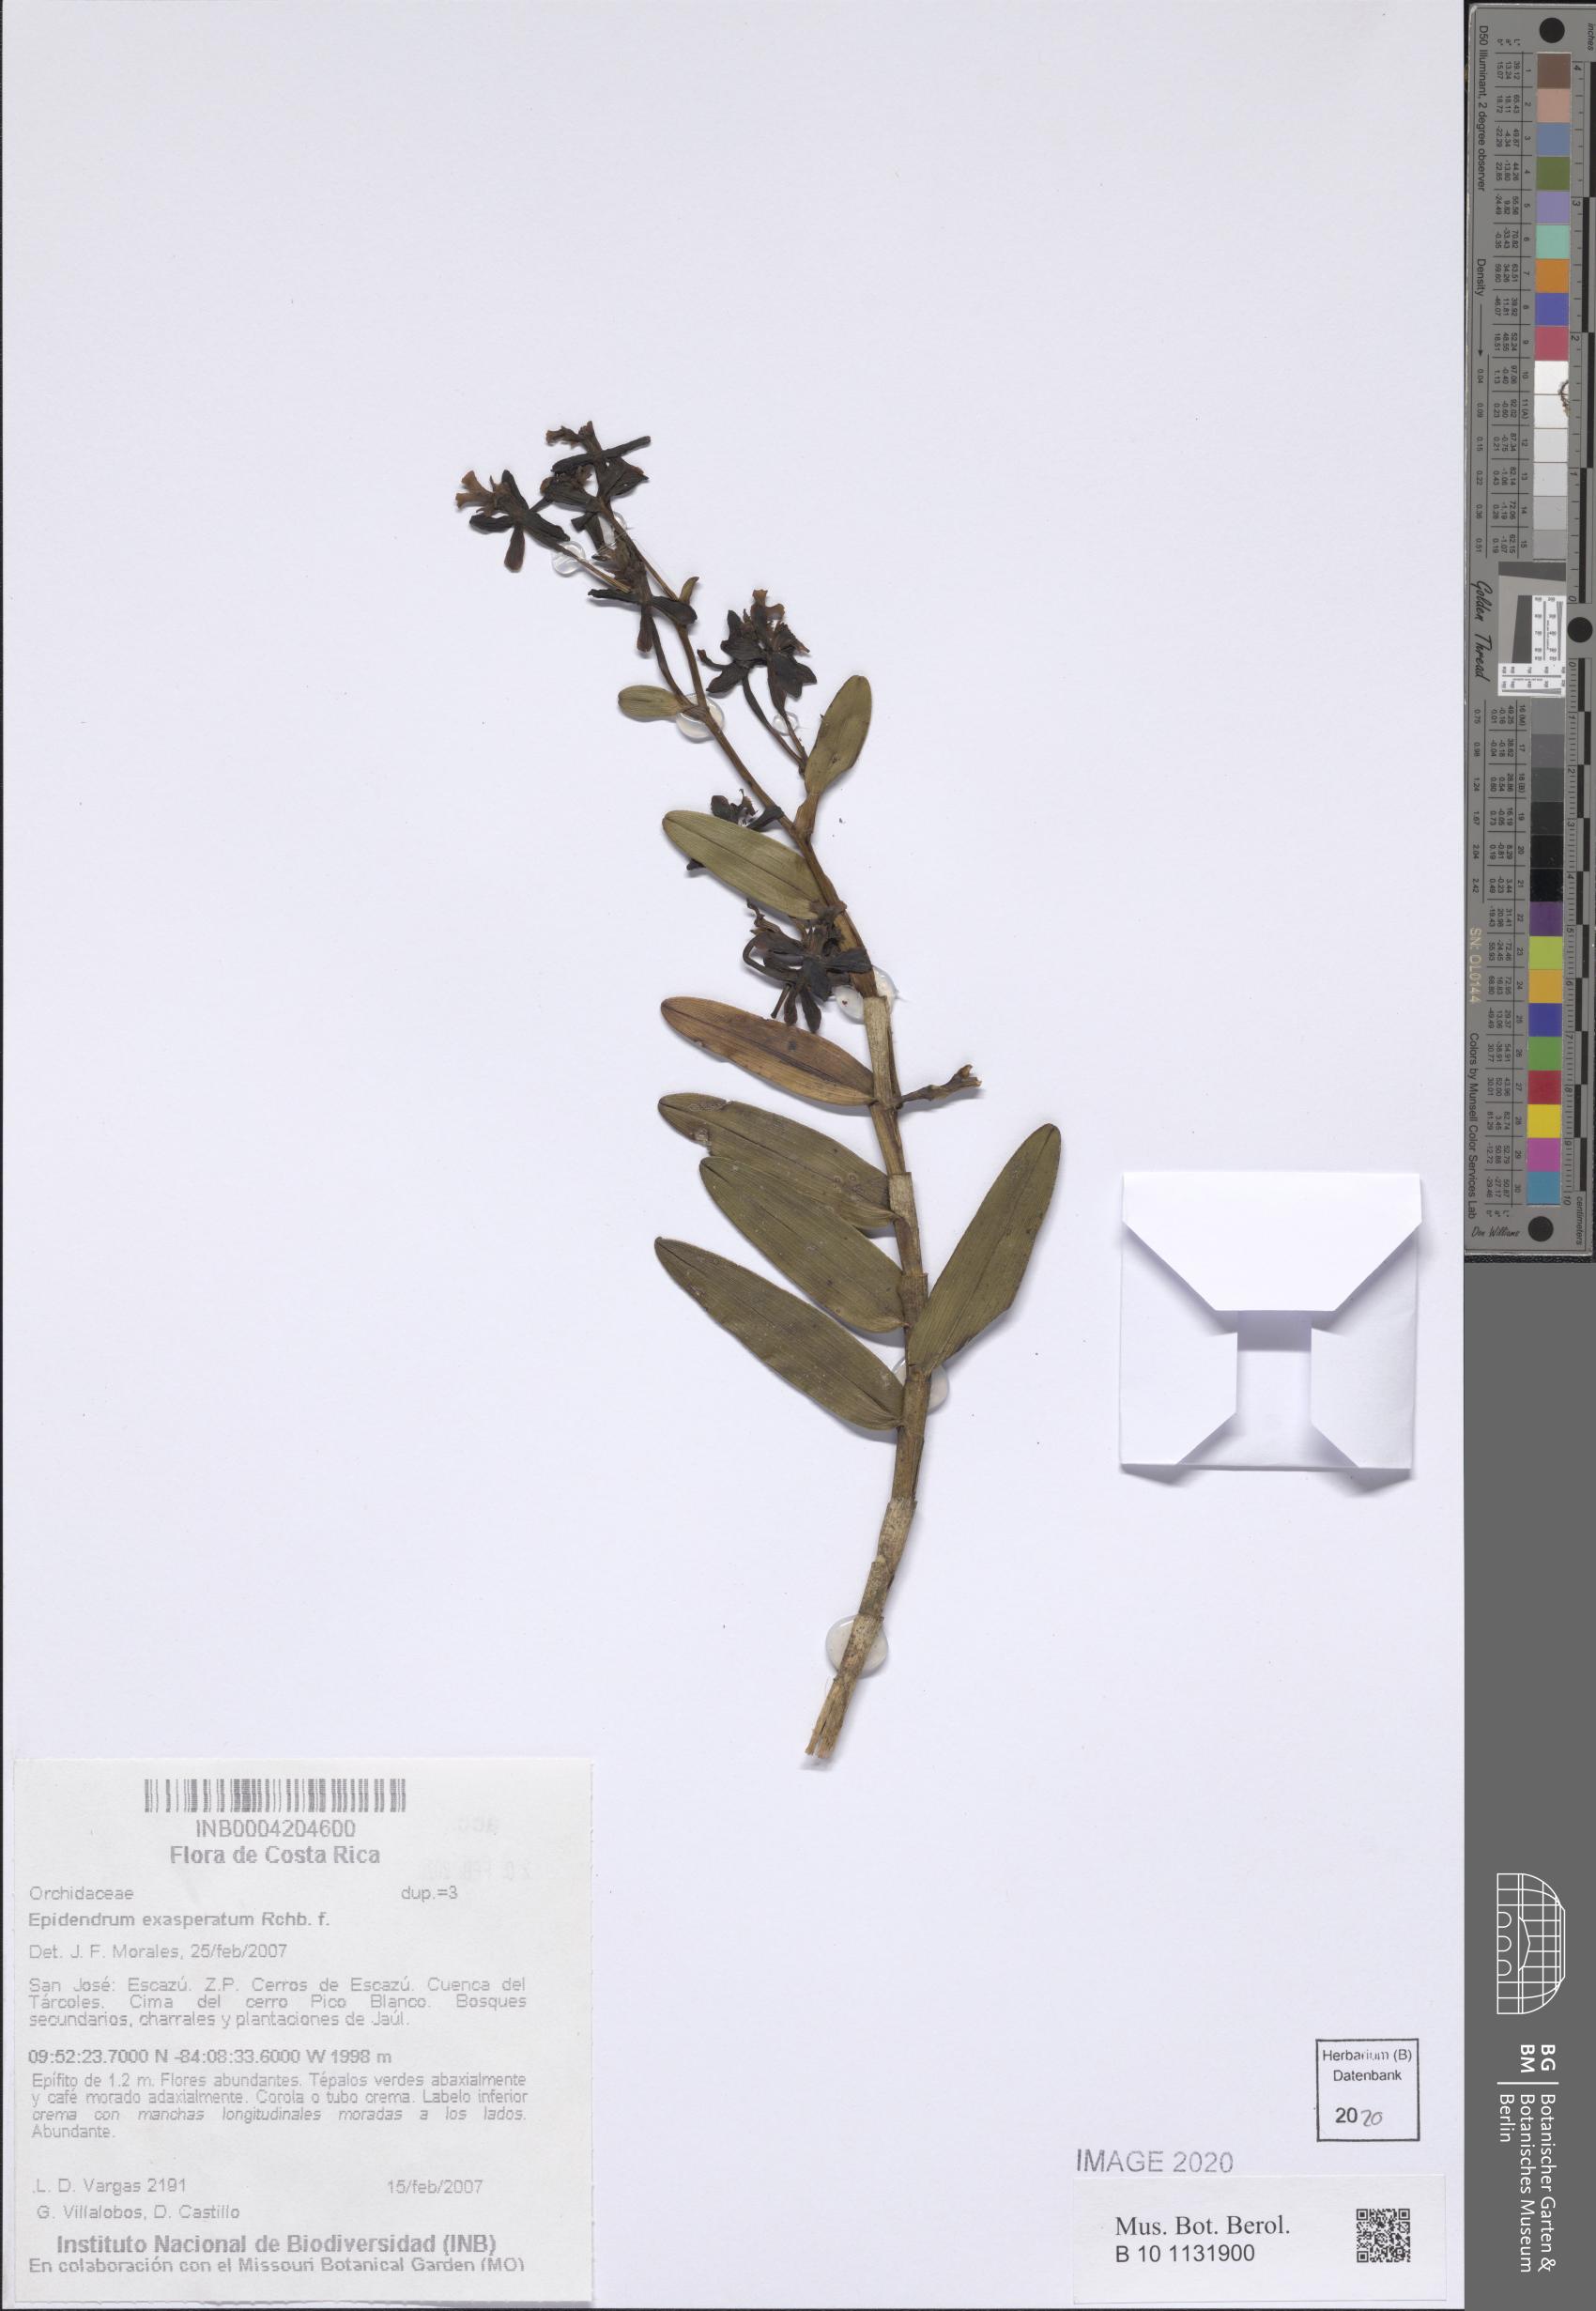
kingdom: Plantae
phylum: Tracheophyta
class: Liliopsida
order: Asparagales
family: Orchidaceae
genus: Epidendrum
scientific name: Epidendrum exasperatum
